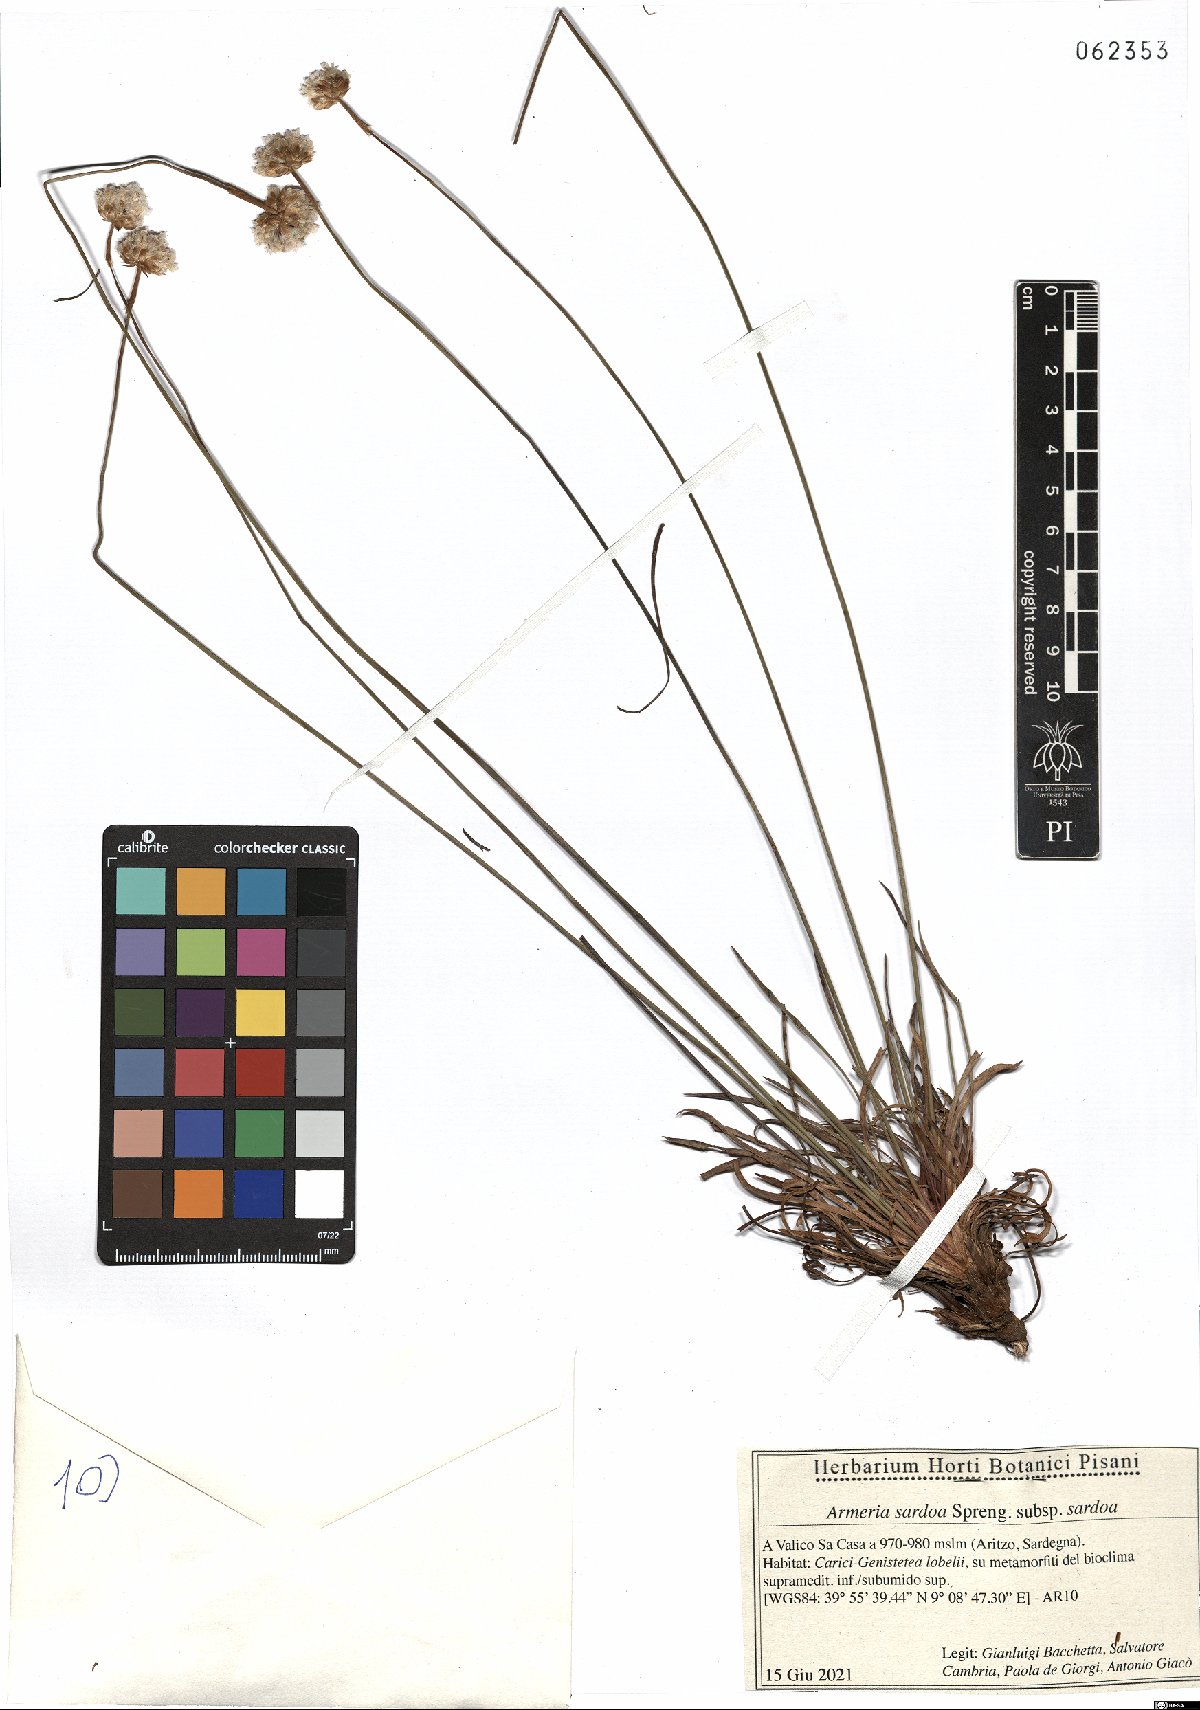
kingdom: Plantae
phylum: Tracheophyta
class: Magnoliopsida
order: Caryophyllales
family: Plumbaginaceae
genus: Armeria
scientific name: Armeria sardoa
